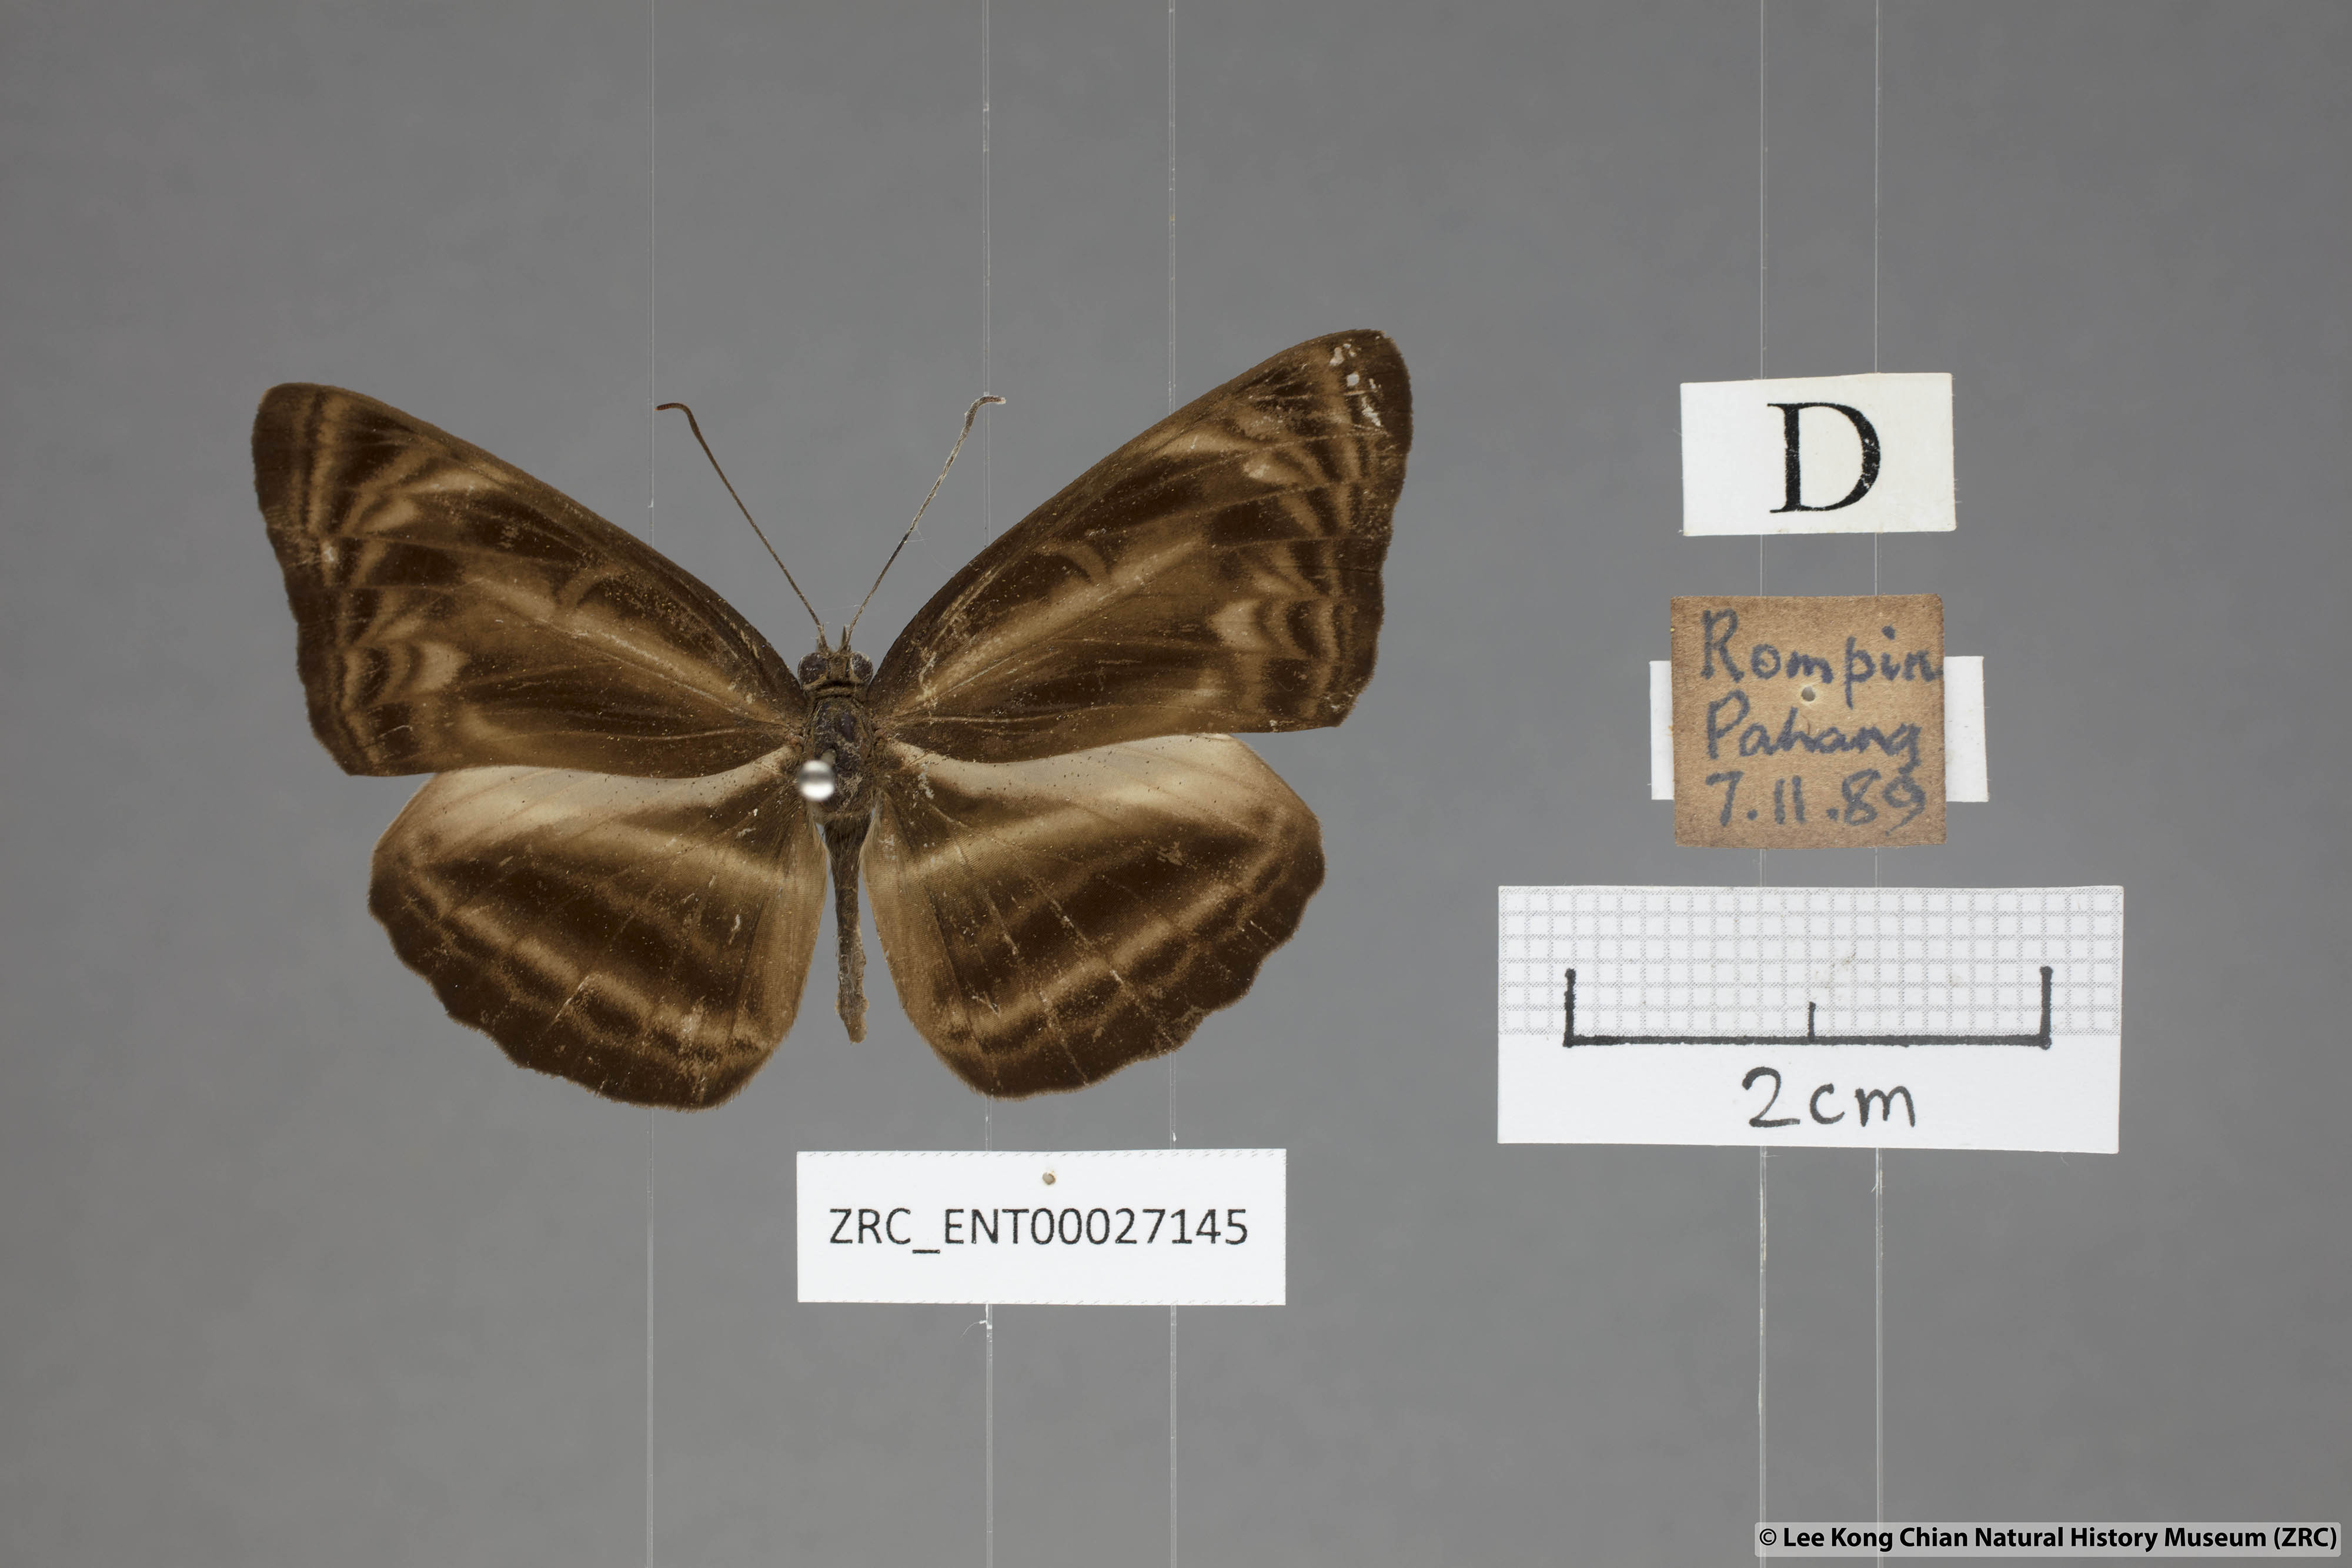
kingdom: Animalia
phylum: Arthropoda
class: Insecta
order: Lepidoptera
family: Nymphalidae
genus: Neptis
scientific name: Neptis harita
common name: Chocolate sailer
